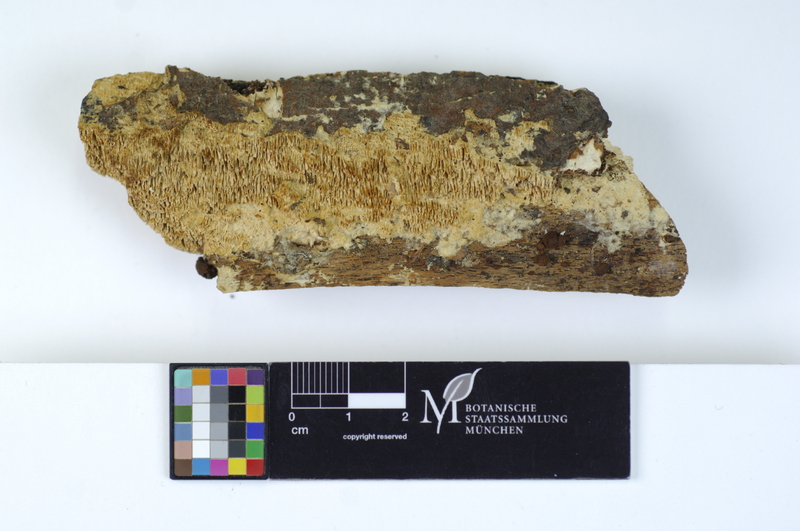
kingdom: Plantae
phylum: Tracheophyta
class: Magnoliopsida
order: Fagales
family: Fagaceae
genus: Fagus
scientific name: Fagus sylvatica
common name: Beech
